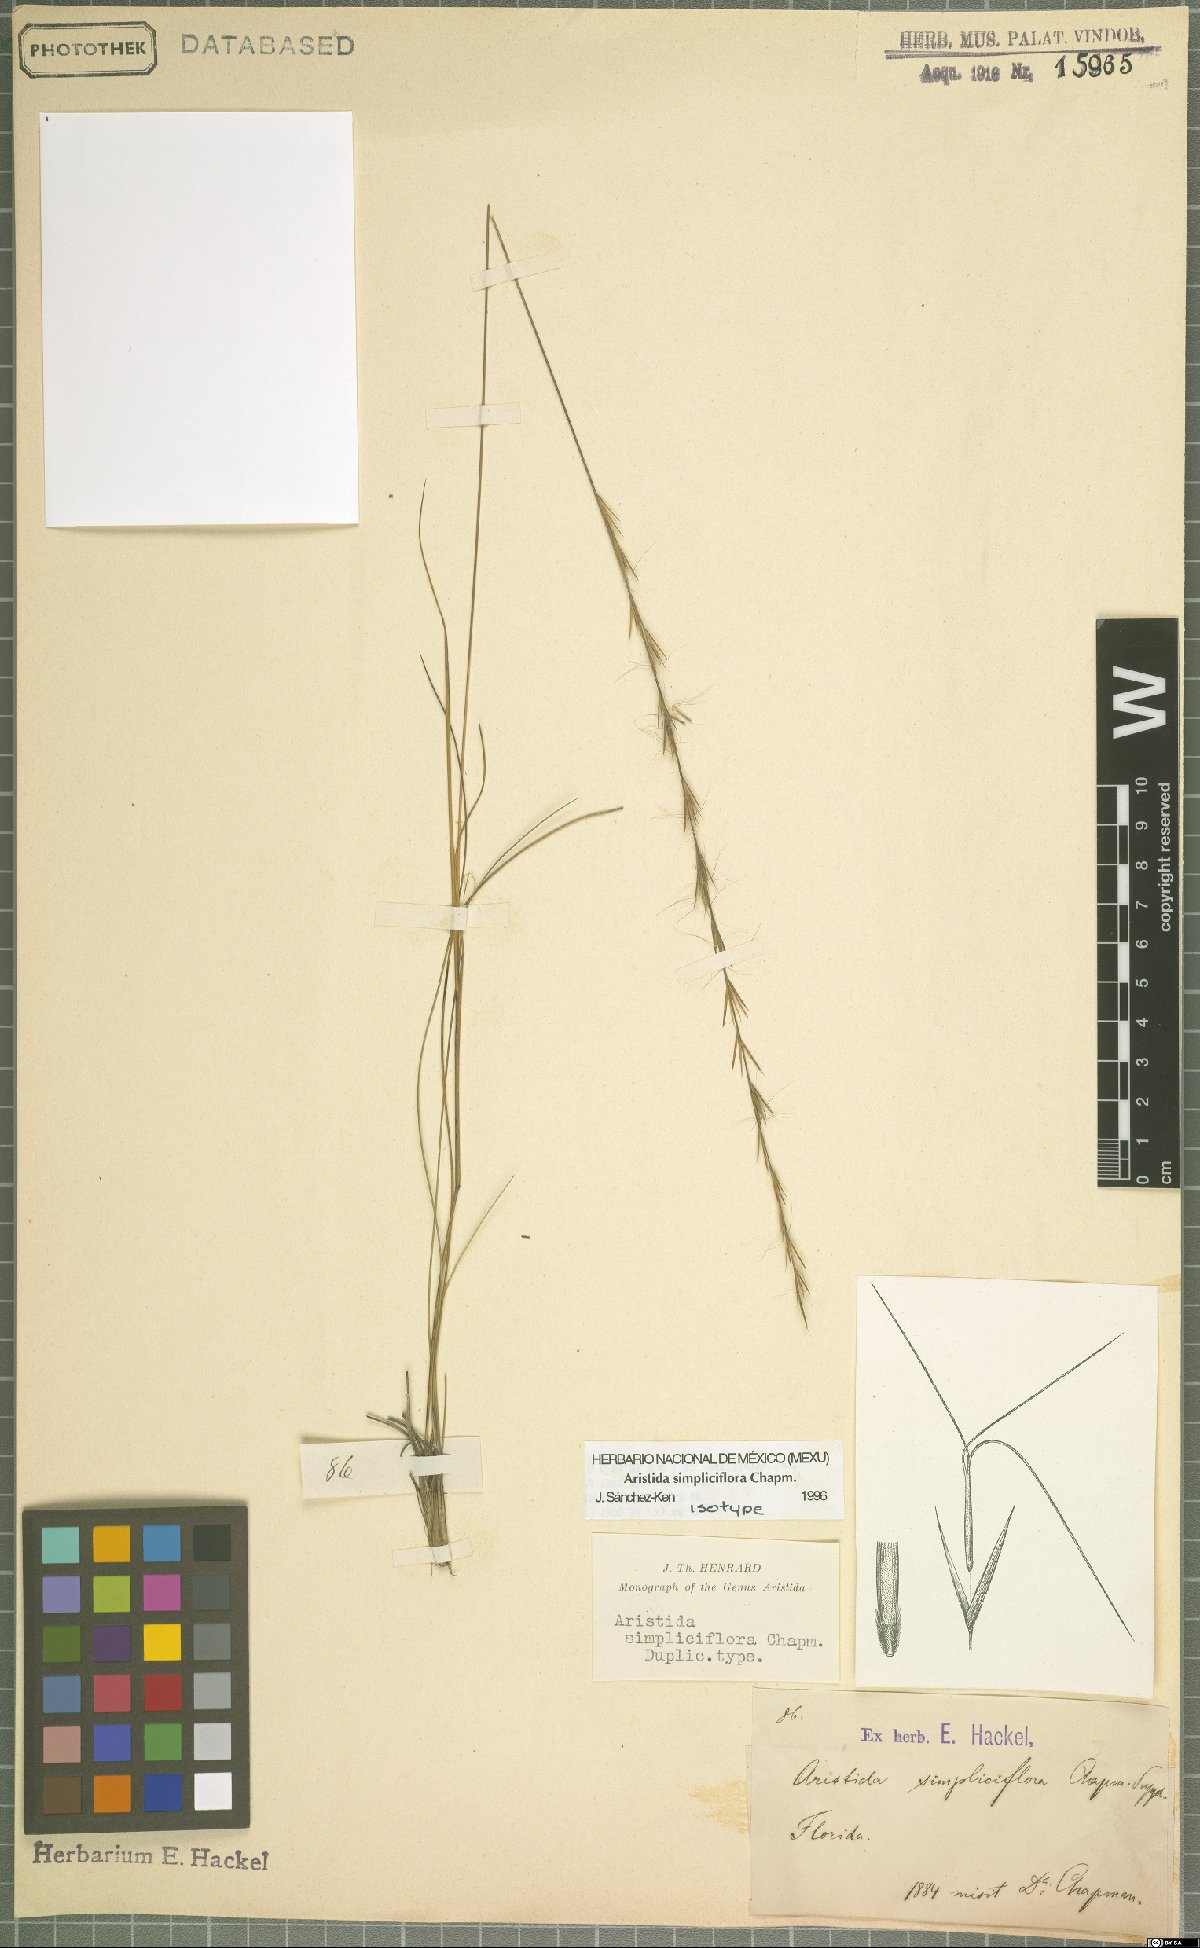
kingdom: Plantae
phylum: Tracheophyta
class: Liliopsida
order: Poales
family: Poaceae
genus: Aristida
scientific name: Aristida simpliciflora
